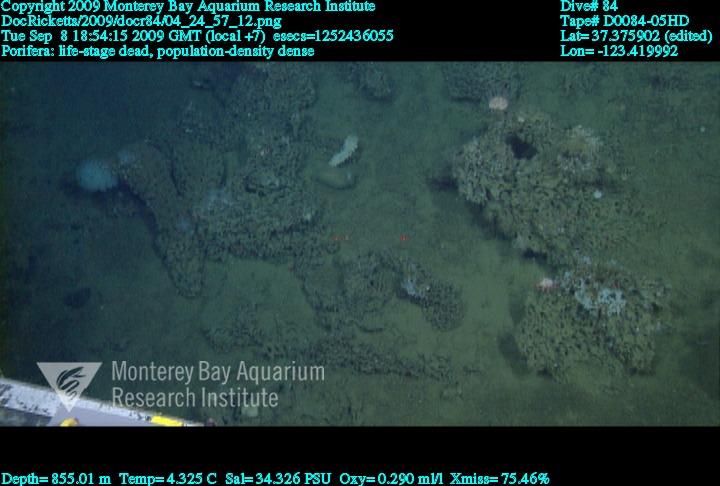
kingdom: Animalia
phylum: Porifera
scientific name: Porifera
